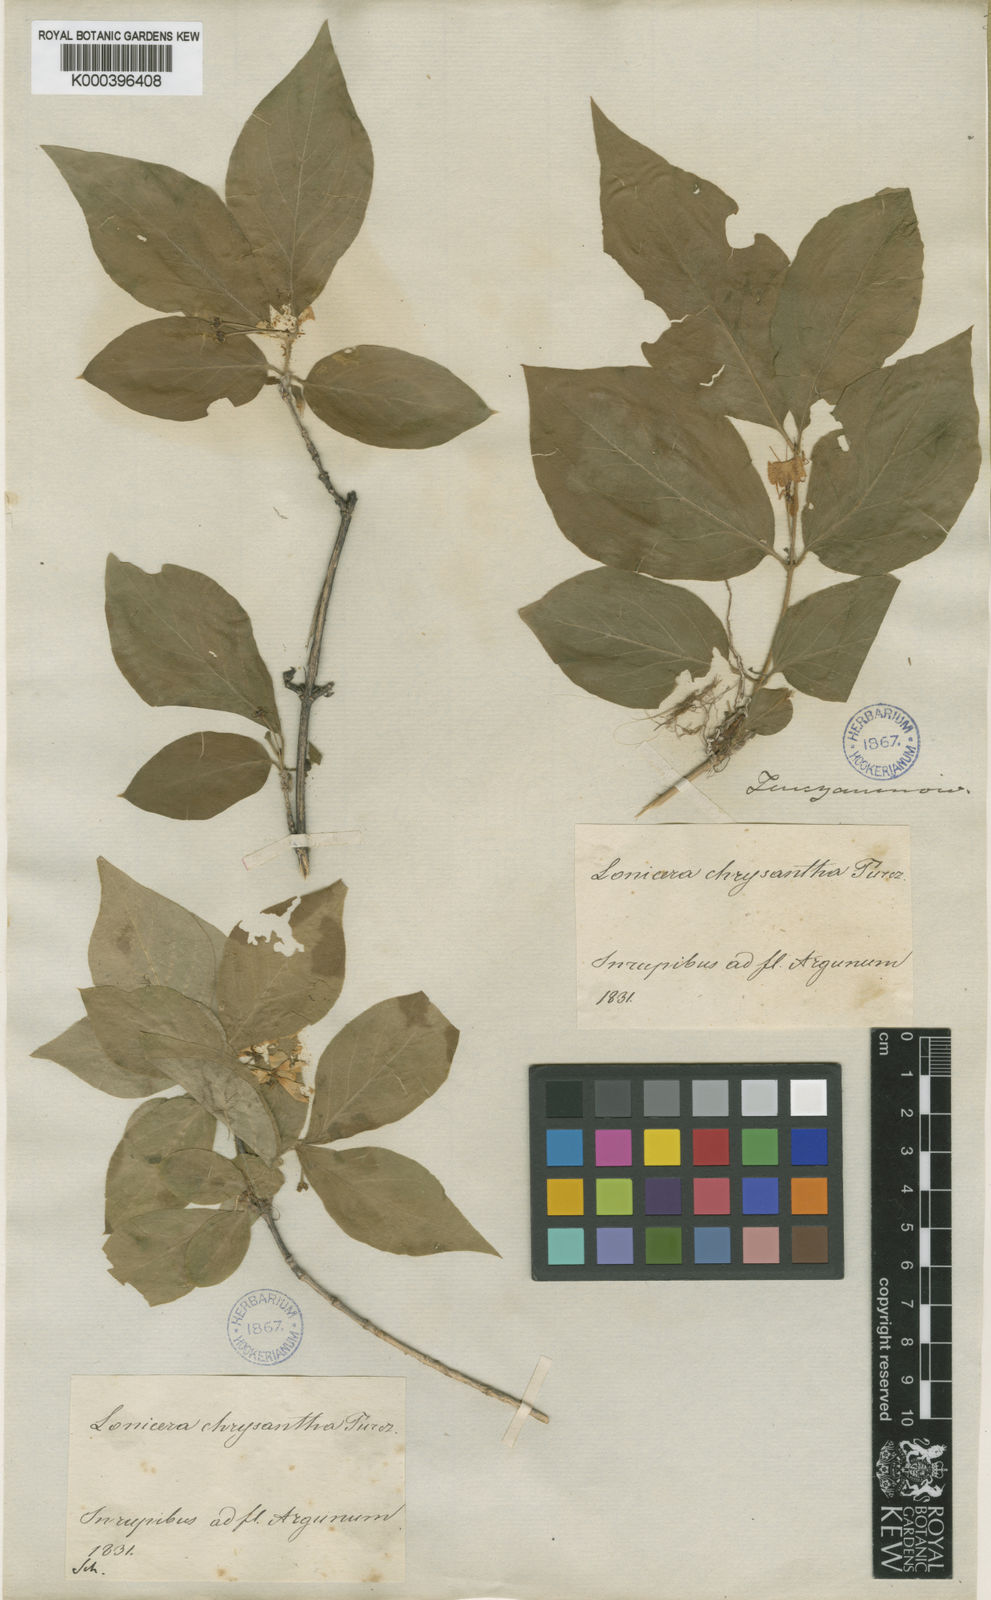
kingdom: Plantae
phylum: Tracheophyta
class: Magnoliopsida
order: Dipsacales
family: Caprifoliaceae
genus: Lonicera
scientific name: Lonicera
